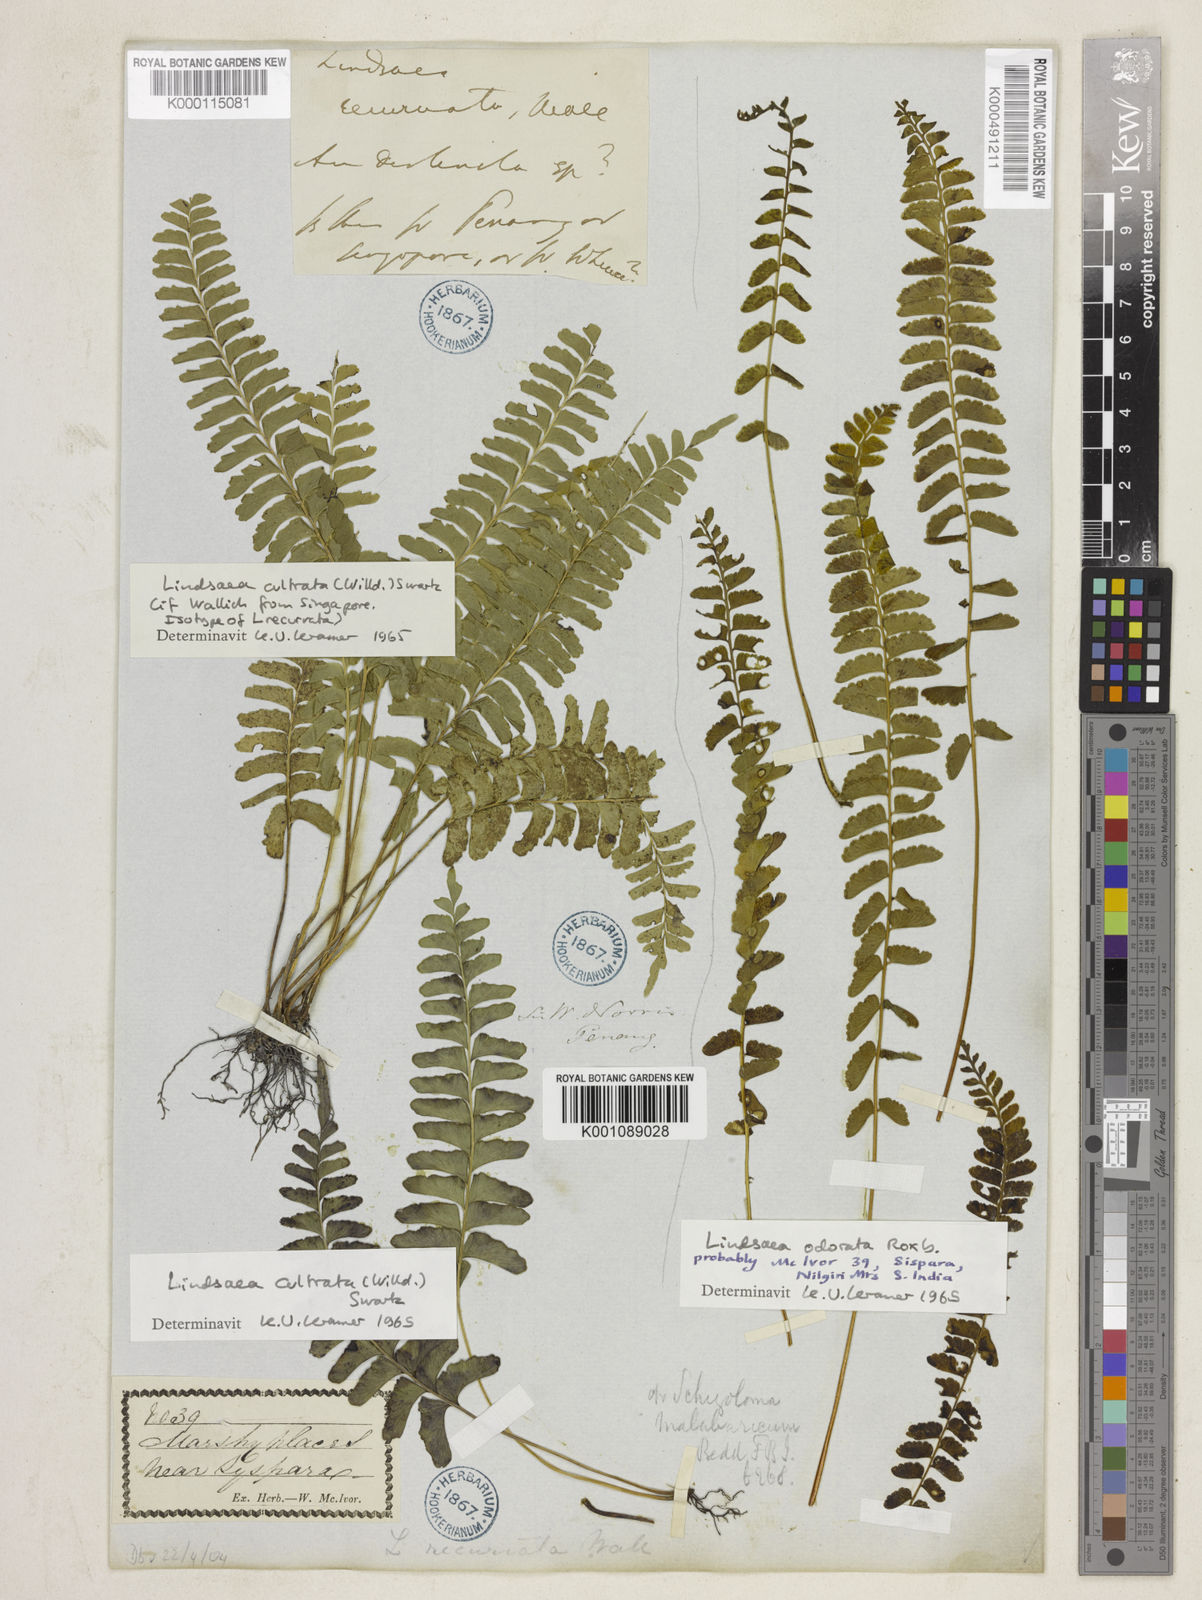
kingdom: Plantae
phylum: Tracheophyta
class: Polypodiopsida
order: Polypodiales
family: Lindsaeaceae
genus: Lindsaea
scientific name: Lindsaea cultrata
